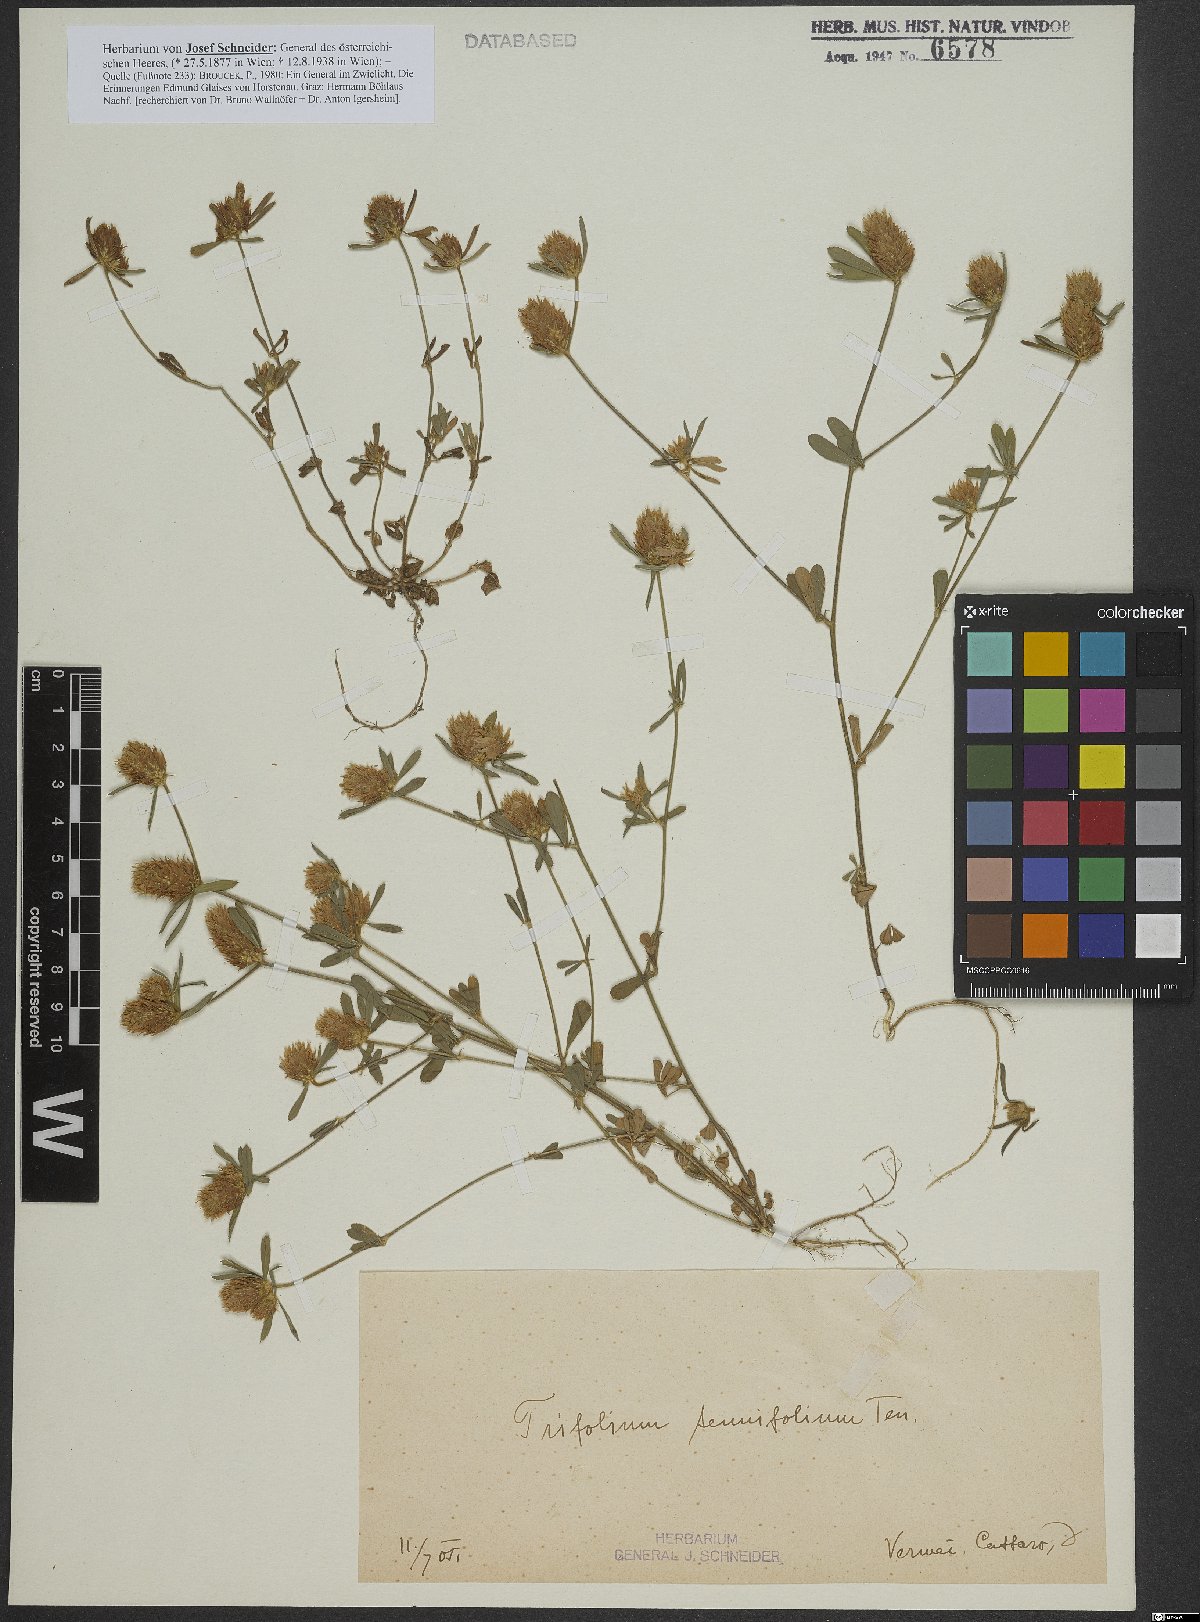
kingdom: Plantae
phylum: Tracheophyta
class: Magnoliopsida
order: Fabales
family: Fabaceae
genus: Trifolium
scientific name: Trifolium tenuifolium
